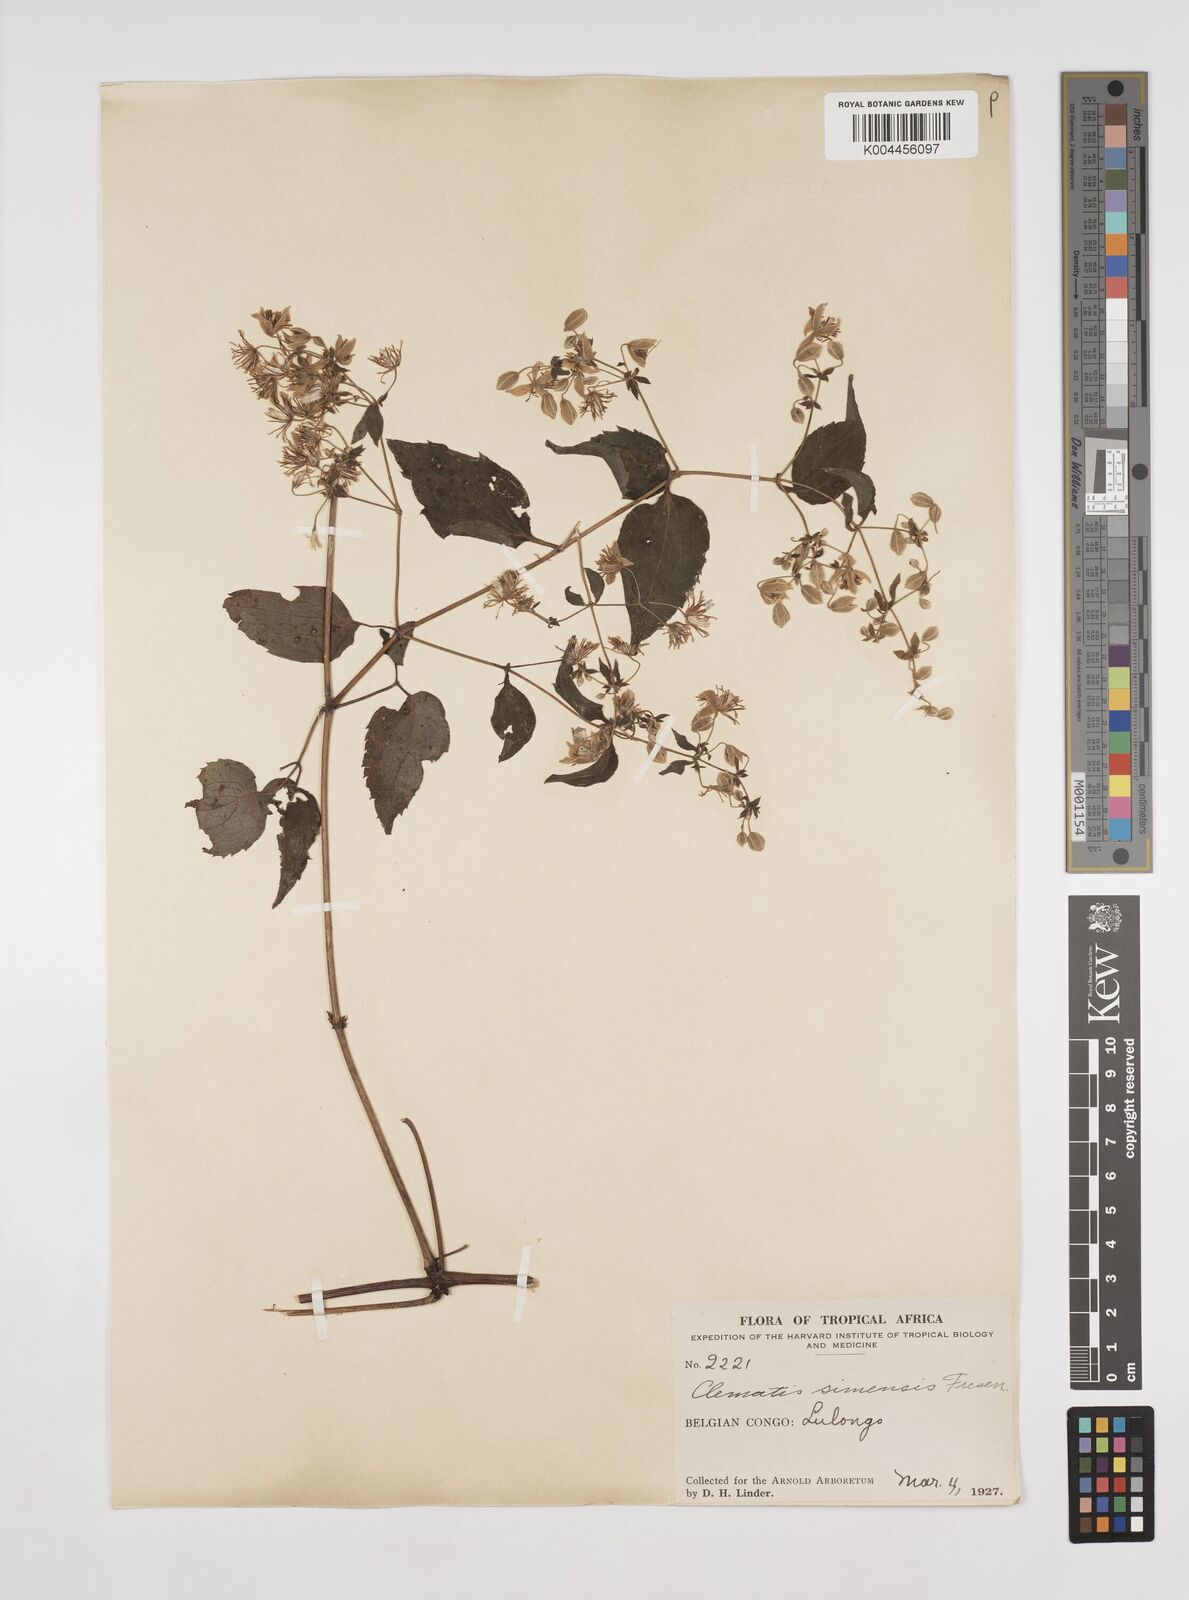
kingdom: Plantae
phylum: Tracheophyta
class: Magnoliopsida
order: Ranunculales
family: Ranunculaceae
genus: Clematis
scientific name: Clematis simensis
